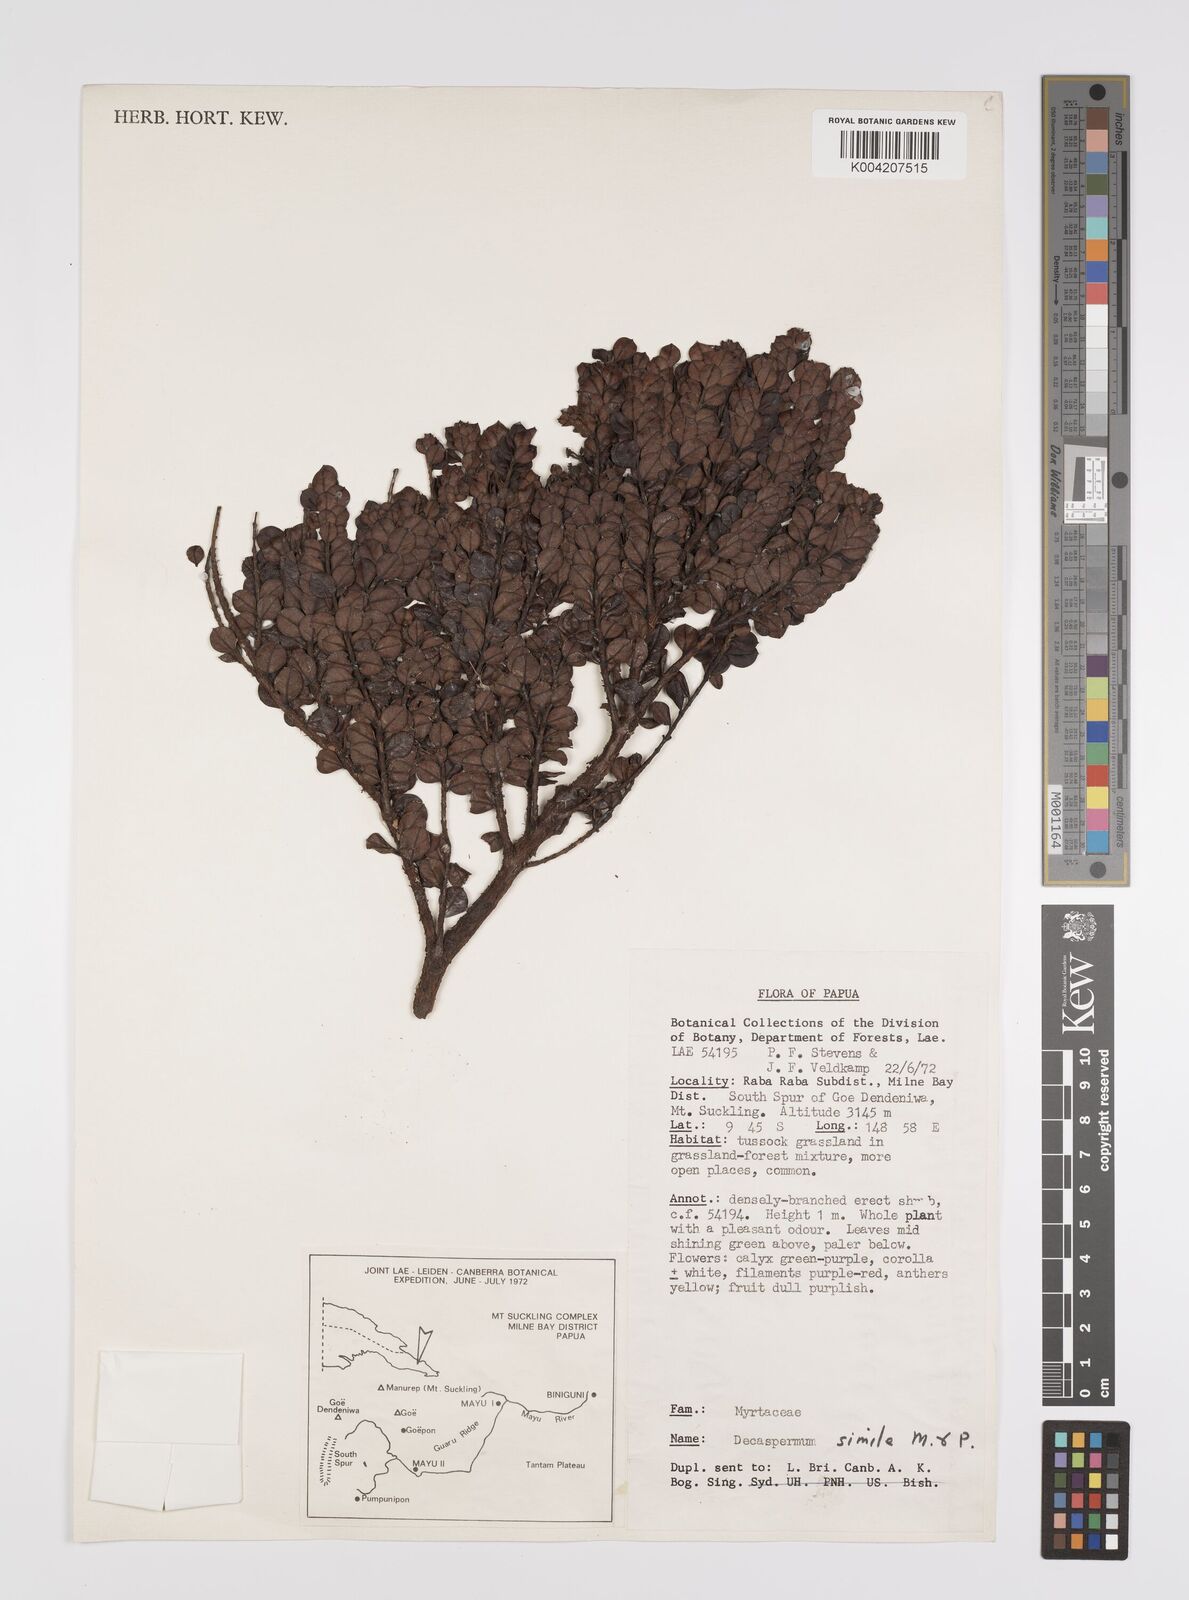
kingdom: Plantae
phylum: Tracheophyta
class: Magnoliopsida
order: Myrtales
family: Myrtaceae
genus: Decaspermum
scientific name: Decaspermum alpinum
